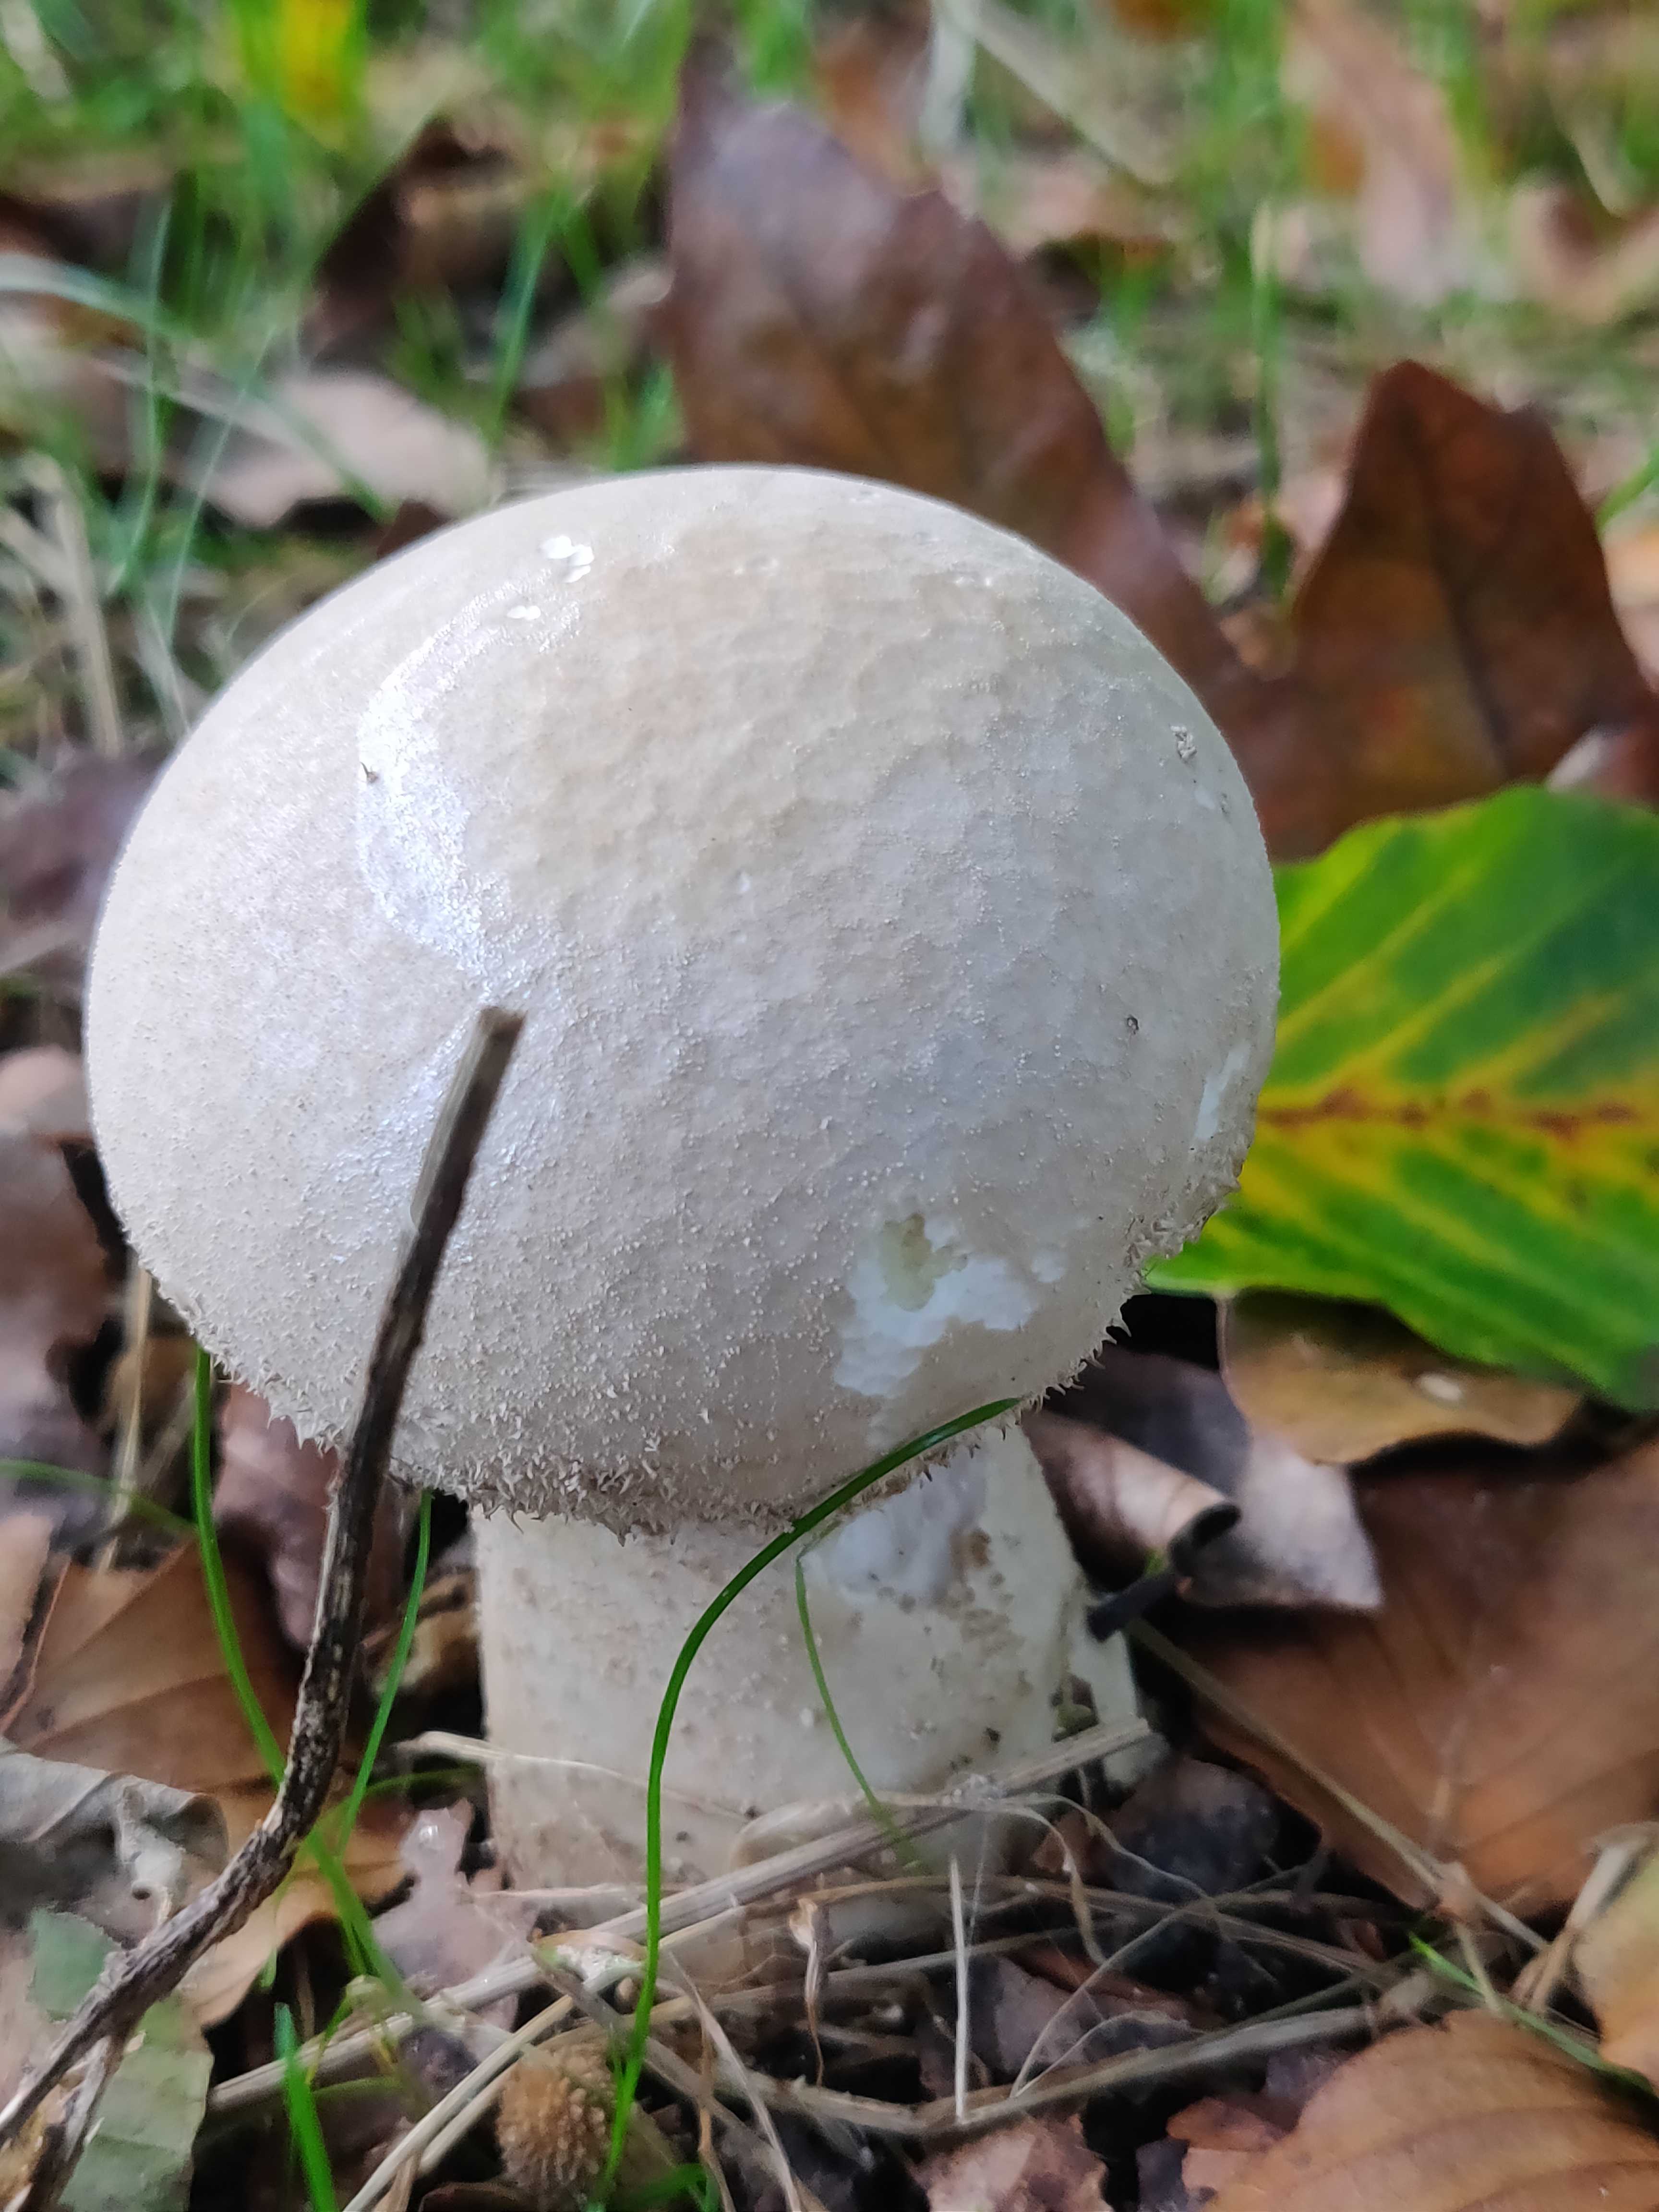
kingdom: Fungi
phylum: Basidiomycota
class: Agaricomycetes
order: Agaricales
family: Lycoperdaceae
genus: Lycoperdon
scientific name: Lycoperdon excipuliforme
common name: højstokket støvbold
